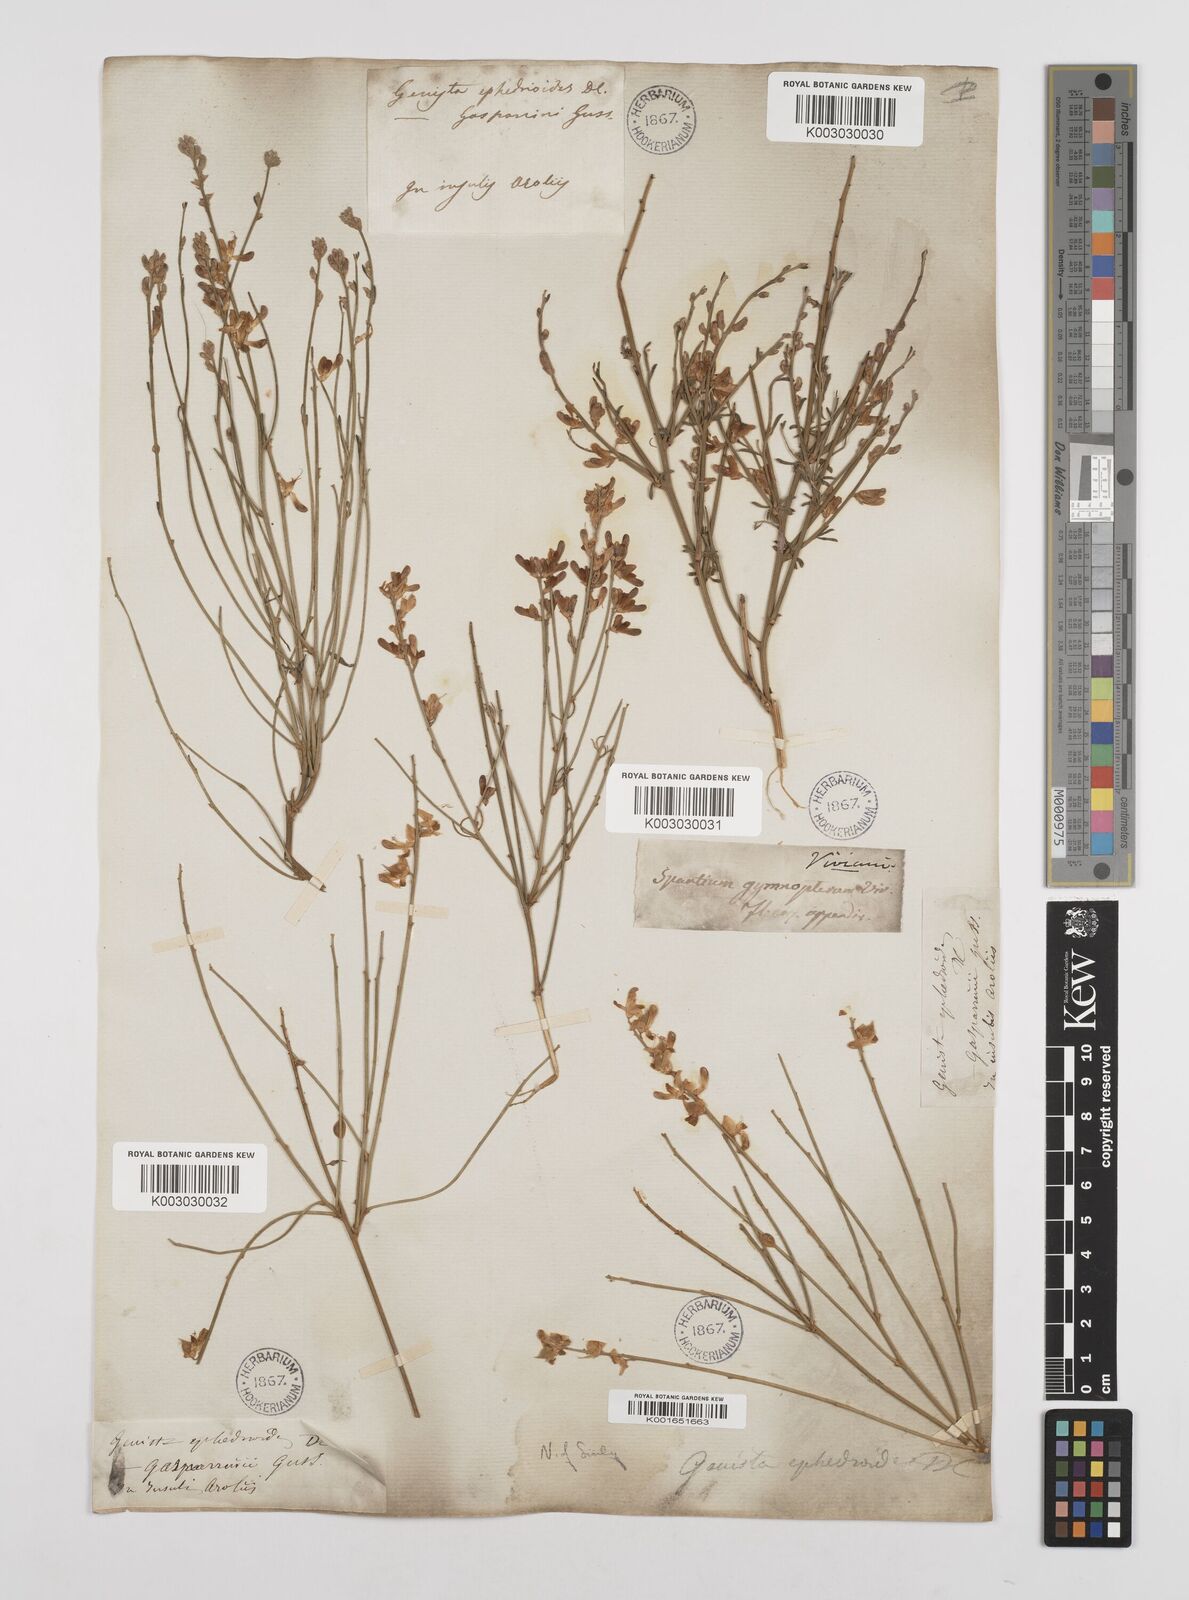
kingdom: Plantae
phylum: Tracheophyta
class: Magnoliopsida
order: Fabales
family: Fabaceae
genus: Genista
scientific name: Genista ephedroides
